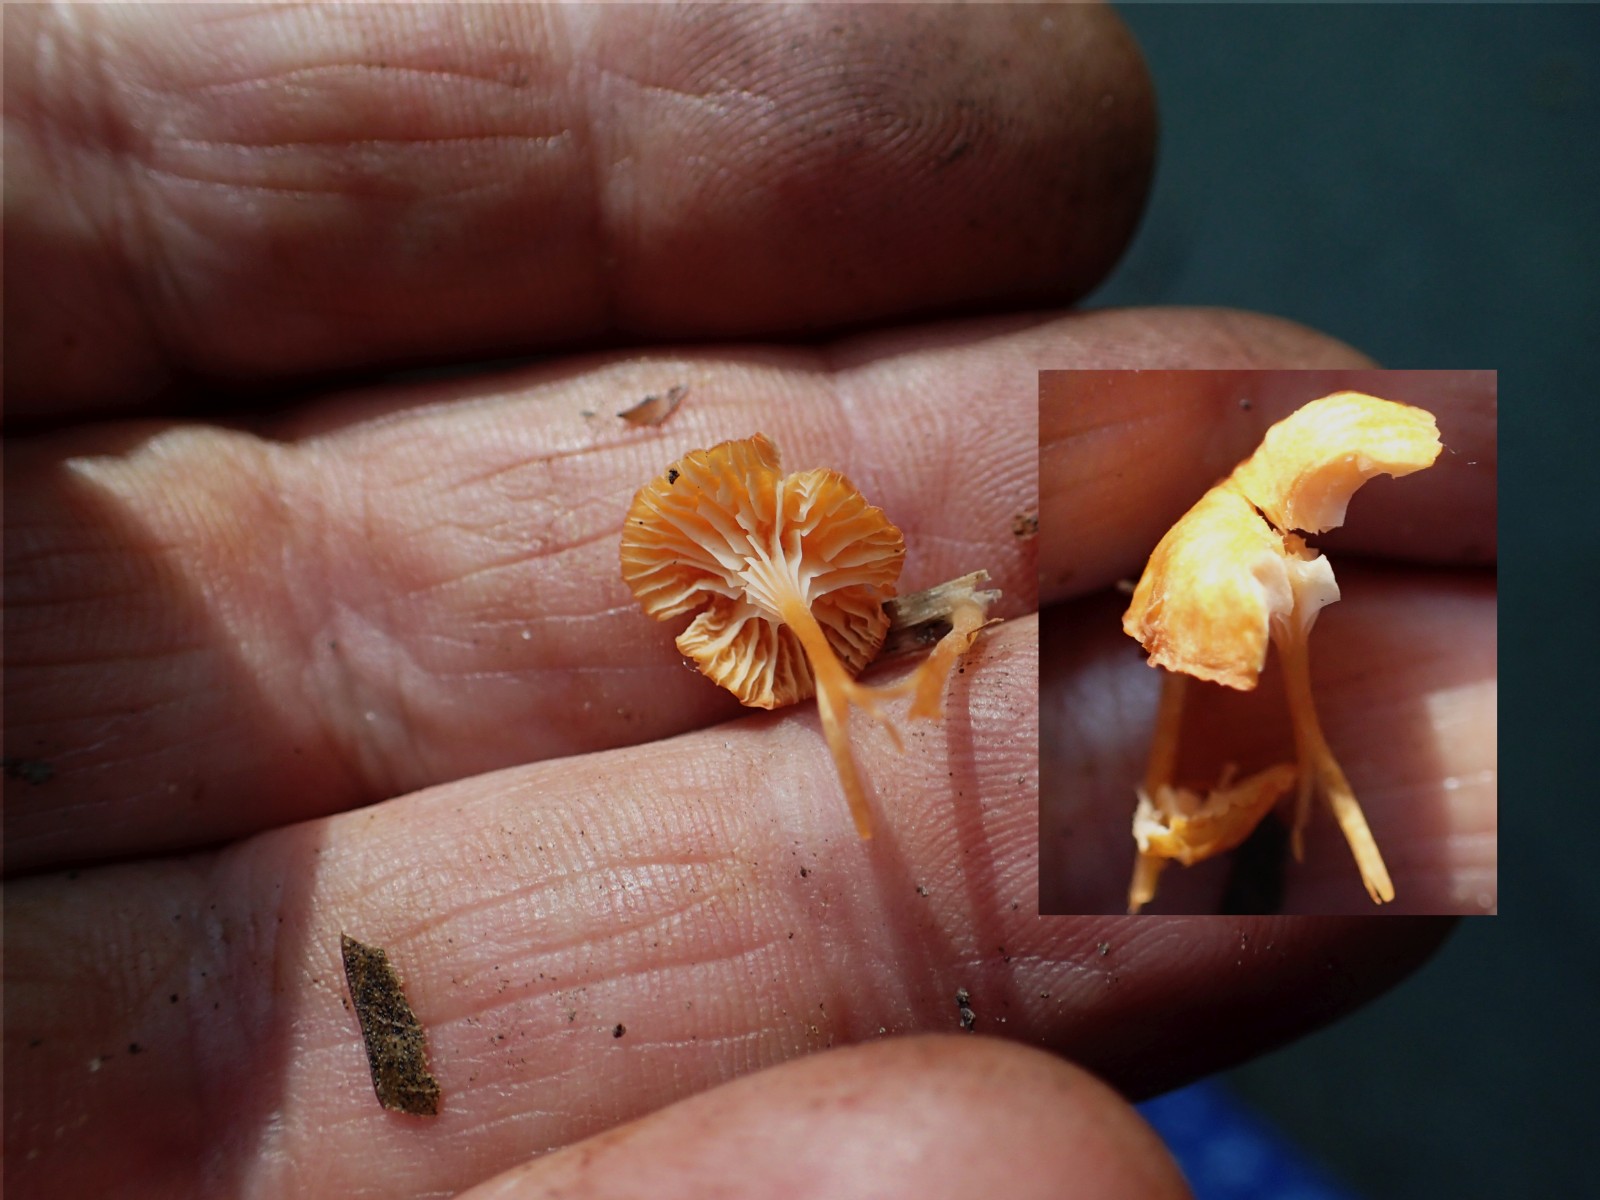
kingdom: Fungi
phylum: Basidiomycota
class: Agaricomycetes
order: Hymenochaetales
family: Rickenellaceae
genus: Rickenella
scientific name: Rickenella fibula
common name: orange mosnavlehat
